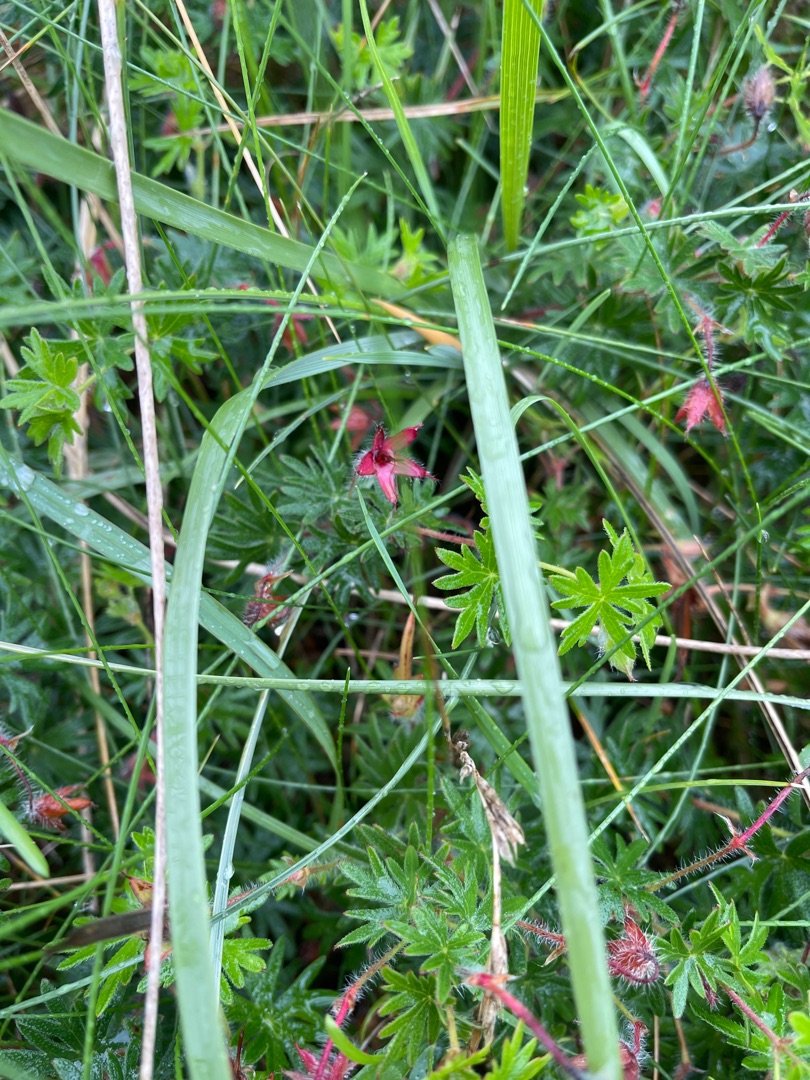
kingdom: Plantae
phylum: Tracheophyta
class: Magnoliopsida
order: Geraniales
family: Geraniaceae
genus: Geranium
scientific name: Geranium sanguineum
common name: Blodrød storkenæb
